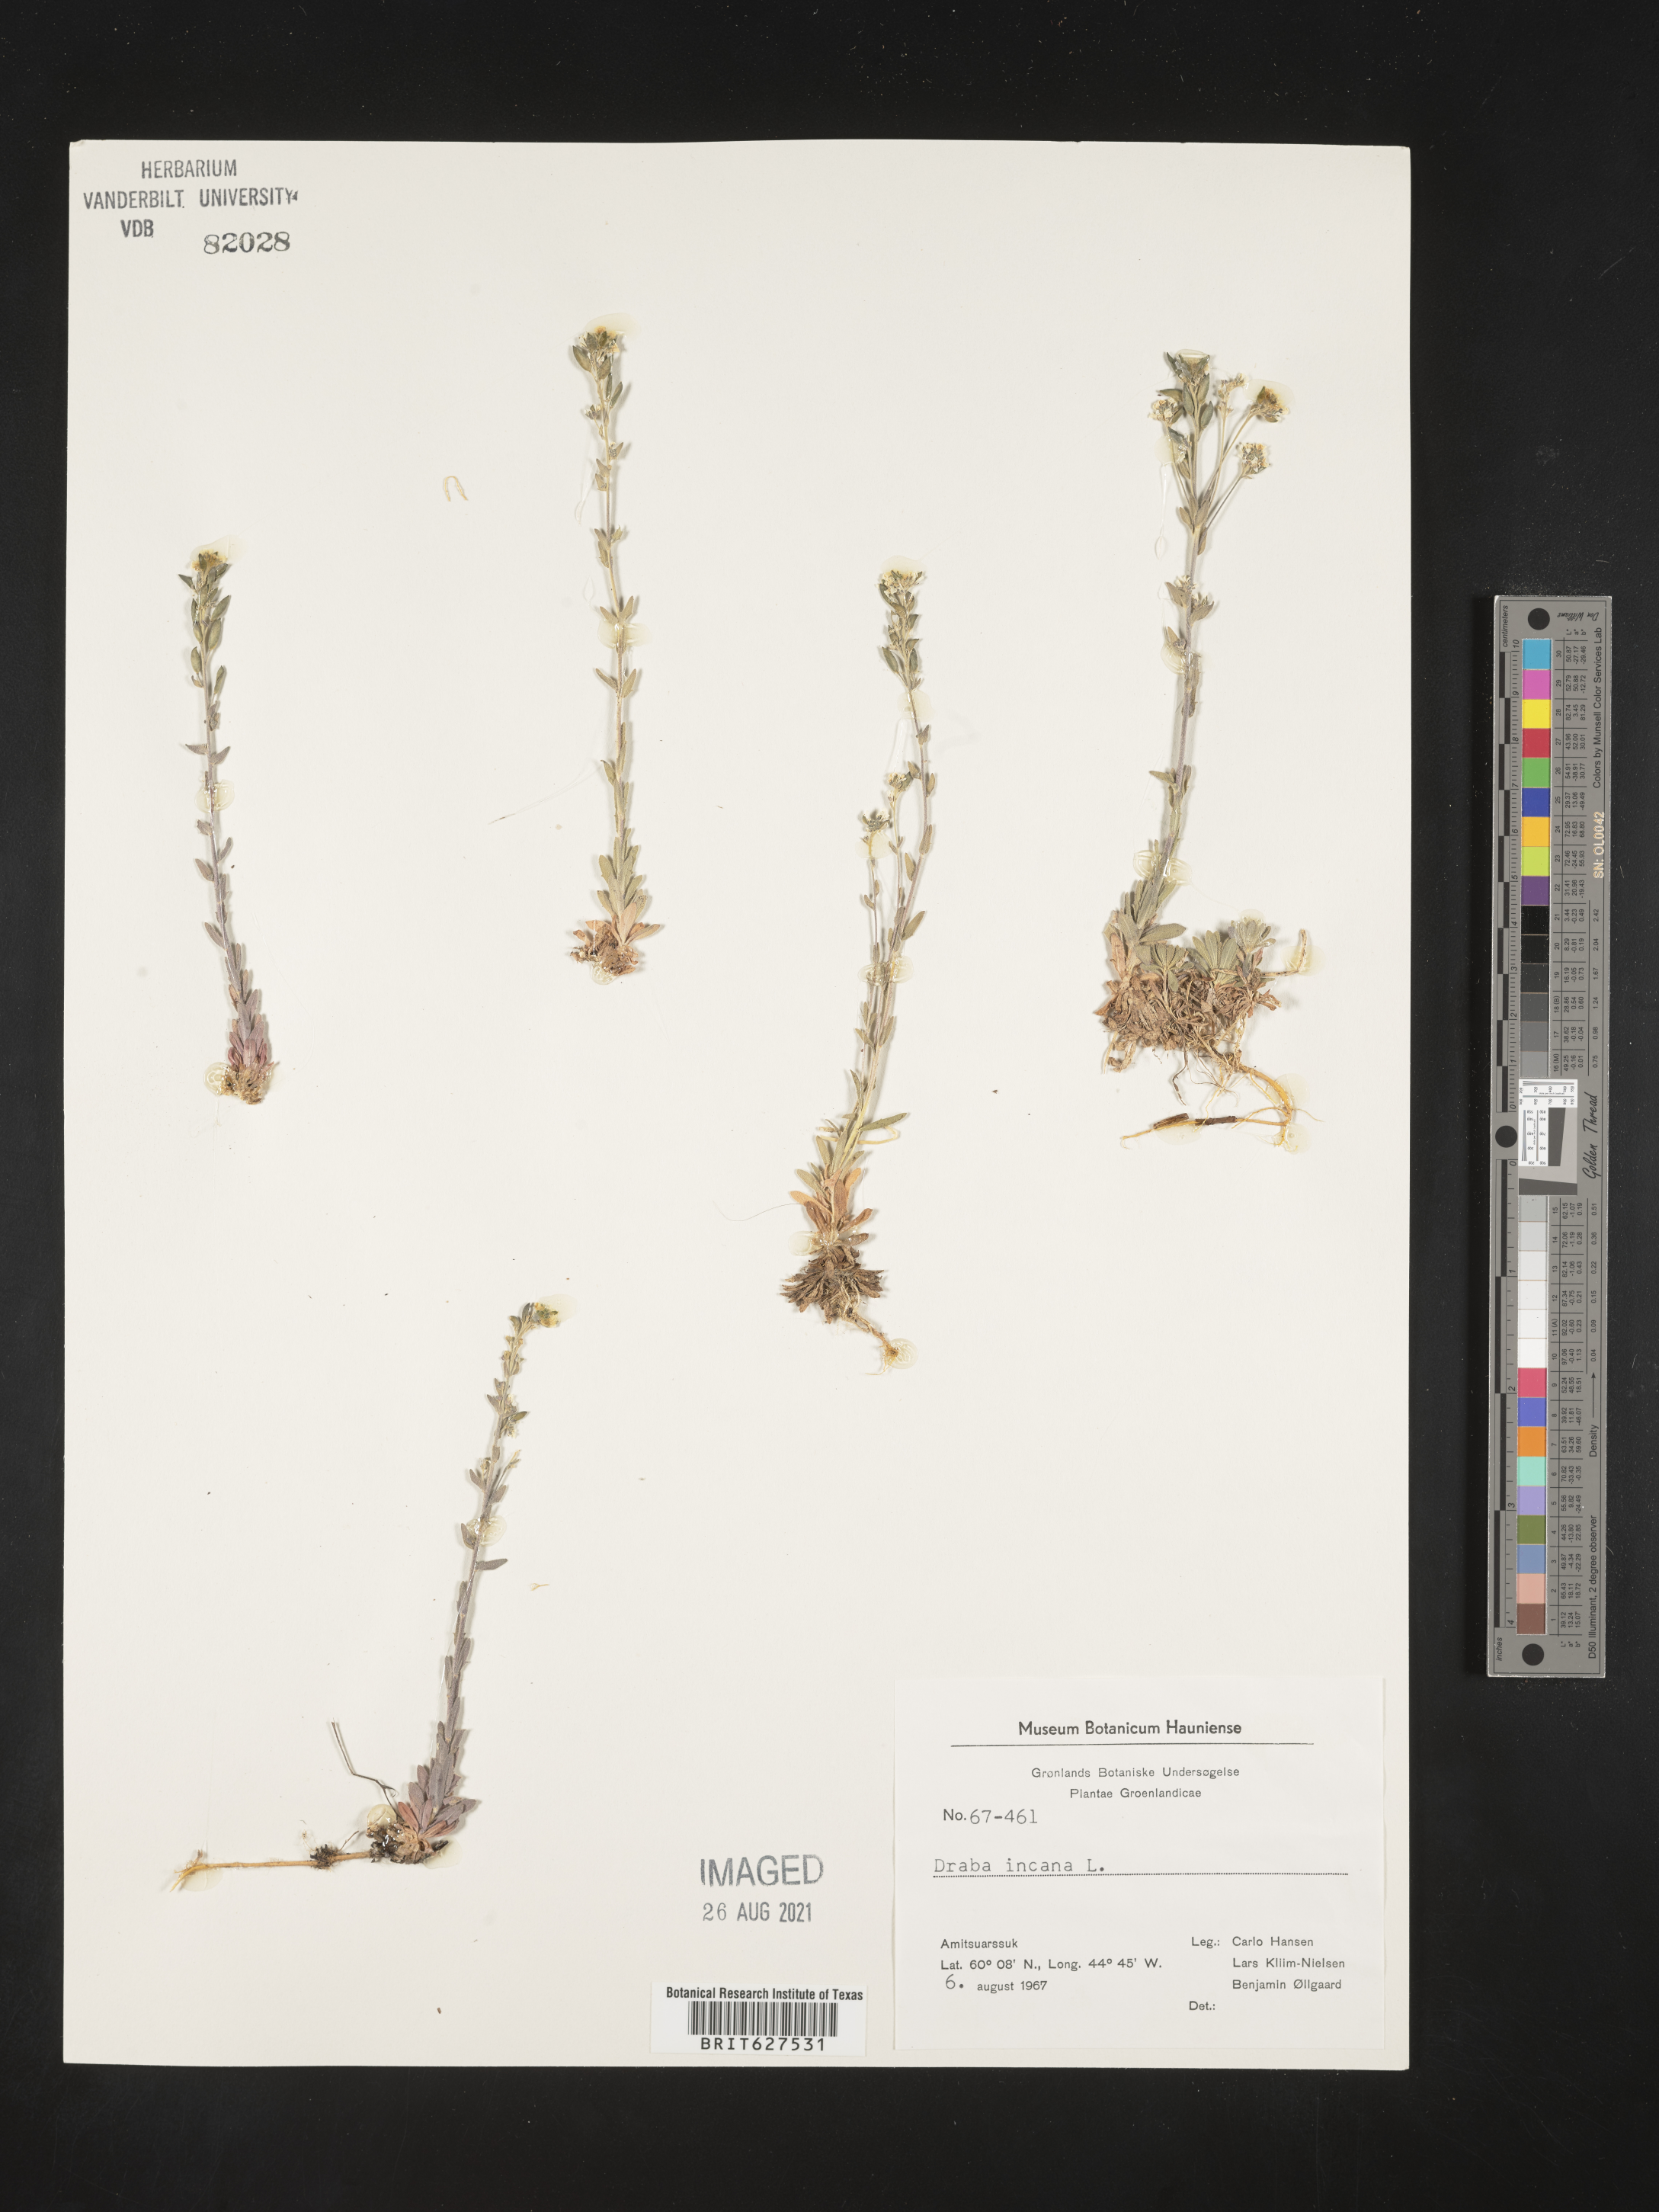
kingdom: Plantae
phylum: Tracheophyta
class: Magnoliopsida
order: Brassicales
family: Brassicaceae
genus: Draba
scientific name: Draba incana
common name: Hoary whitlow-grass
